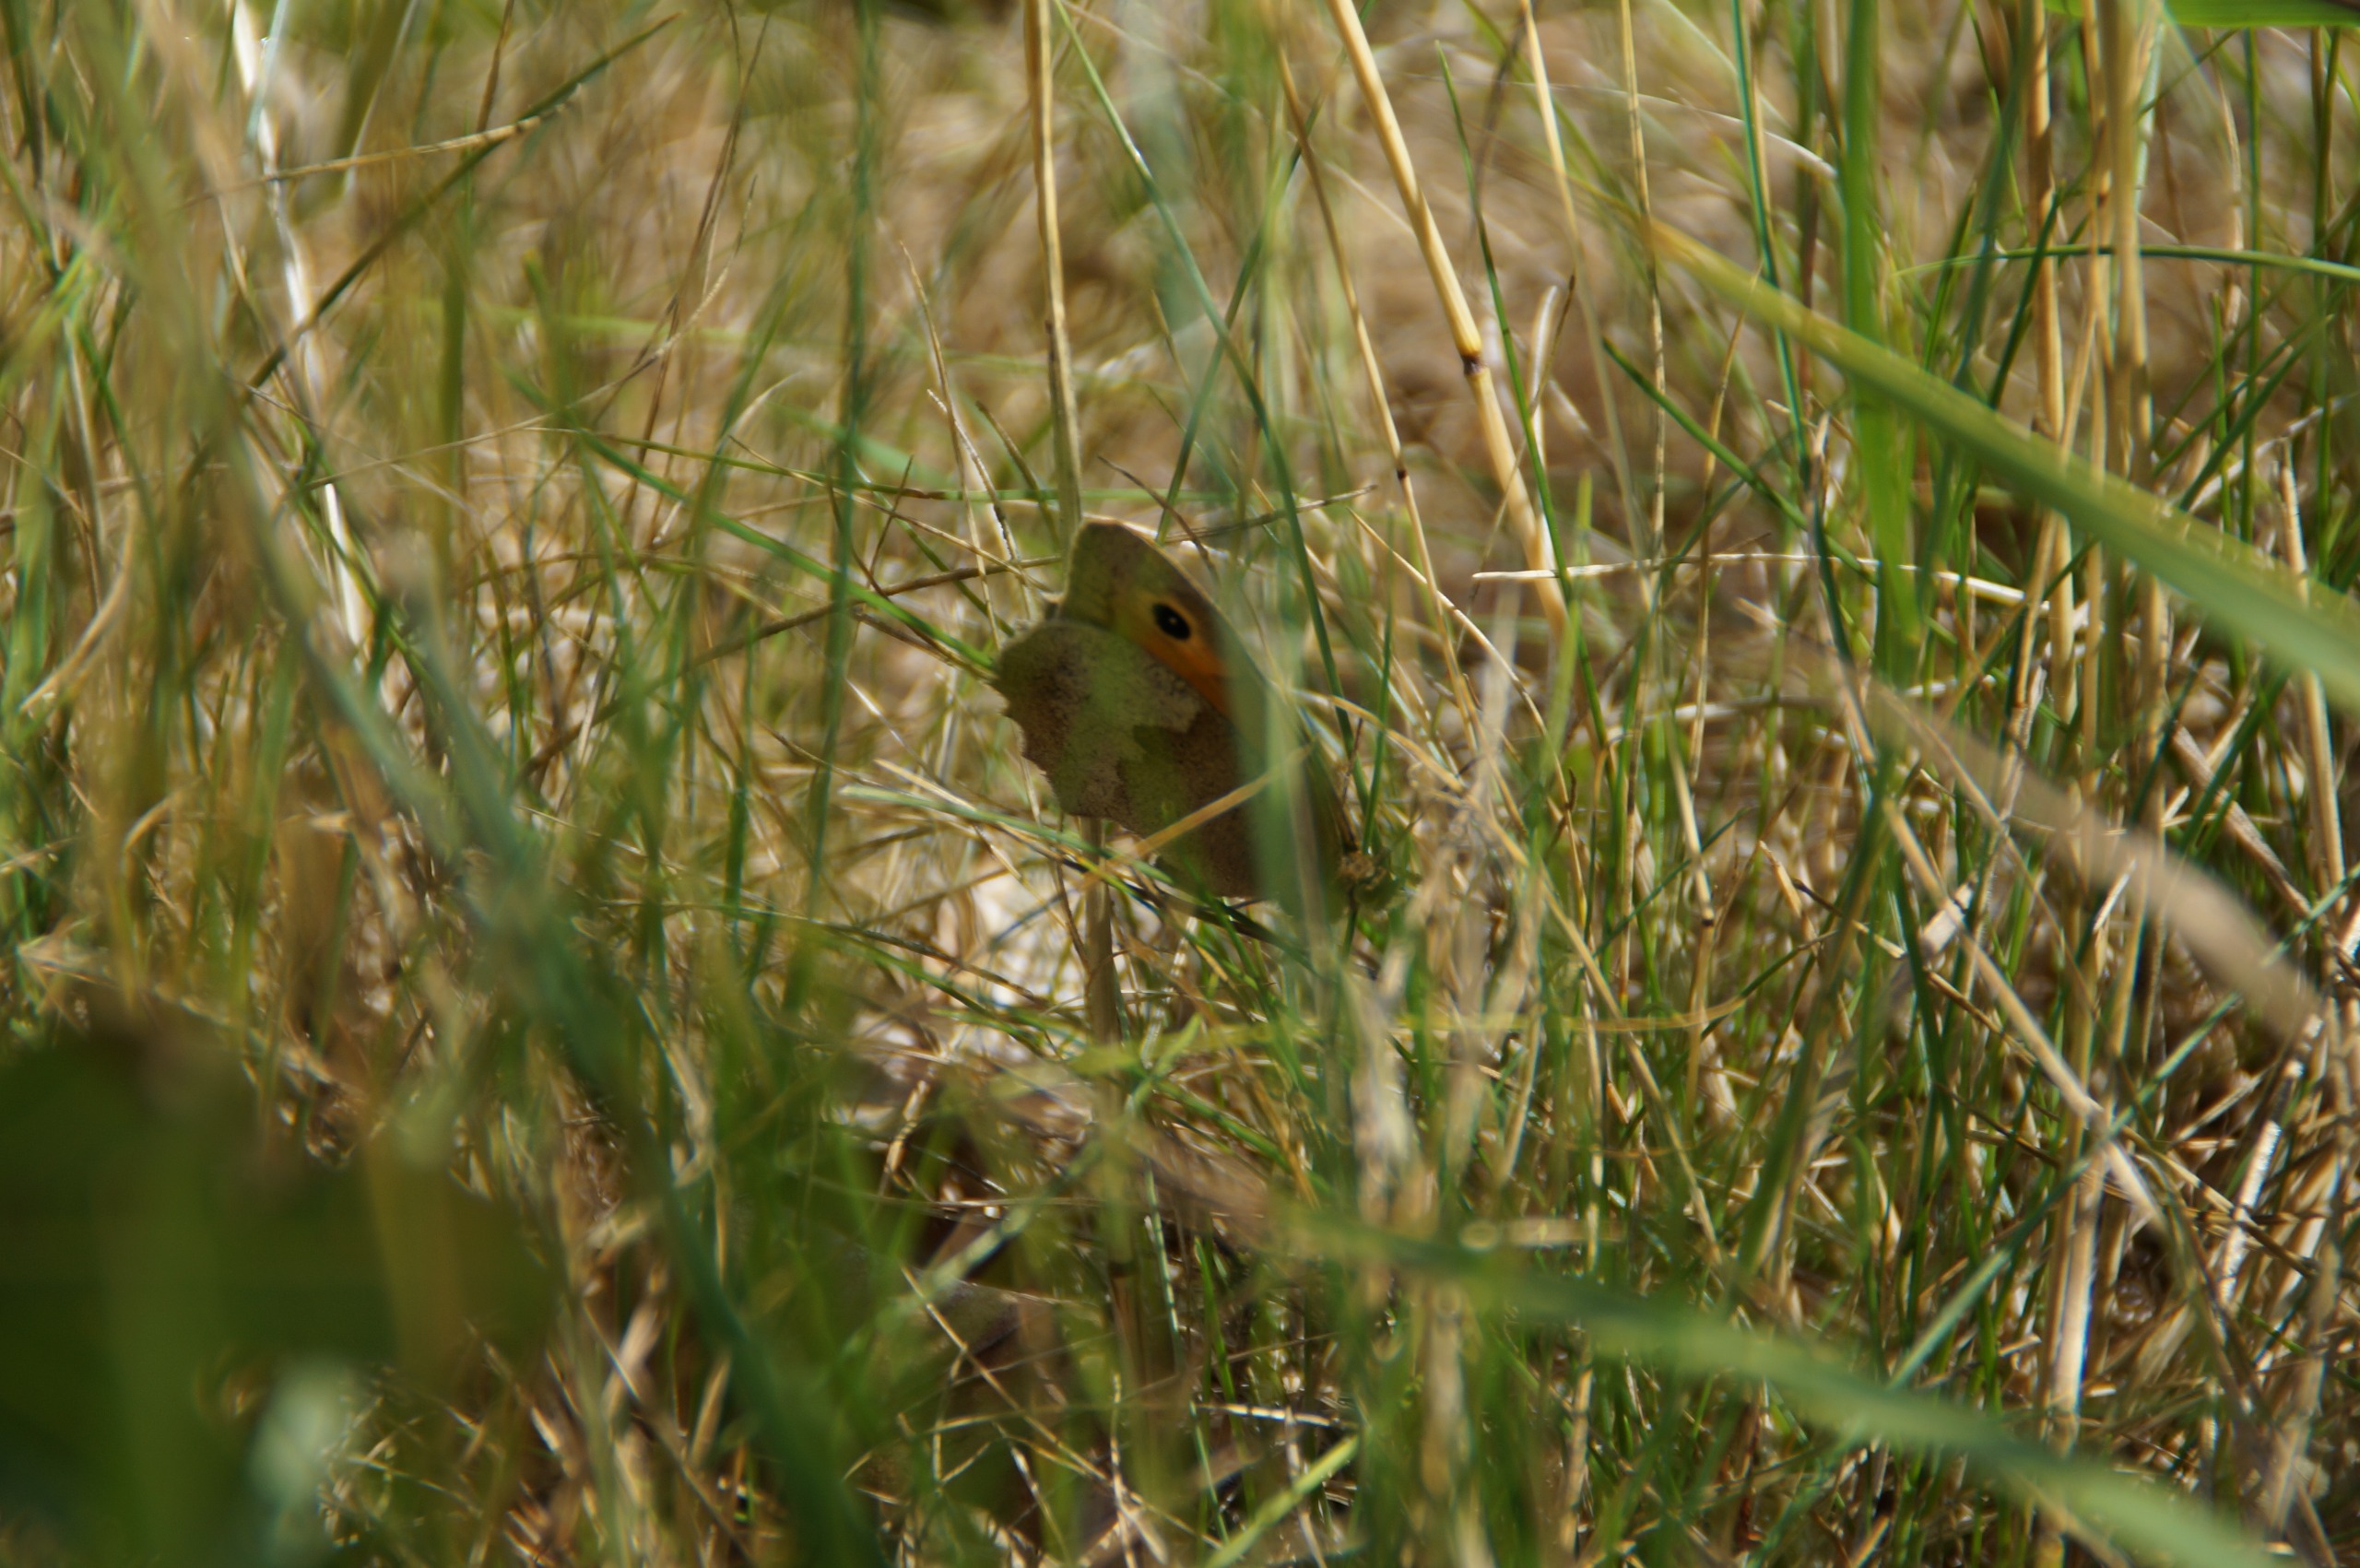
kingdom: Animalia
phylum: Arthropoda
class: Insecta
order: Lepidoptera
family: Nymphalidae
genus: Maniola
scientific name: Maniola jurtina
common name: Græsrandøje
